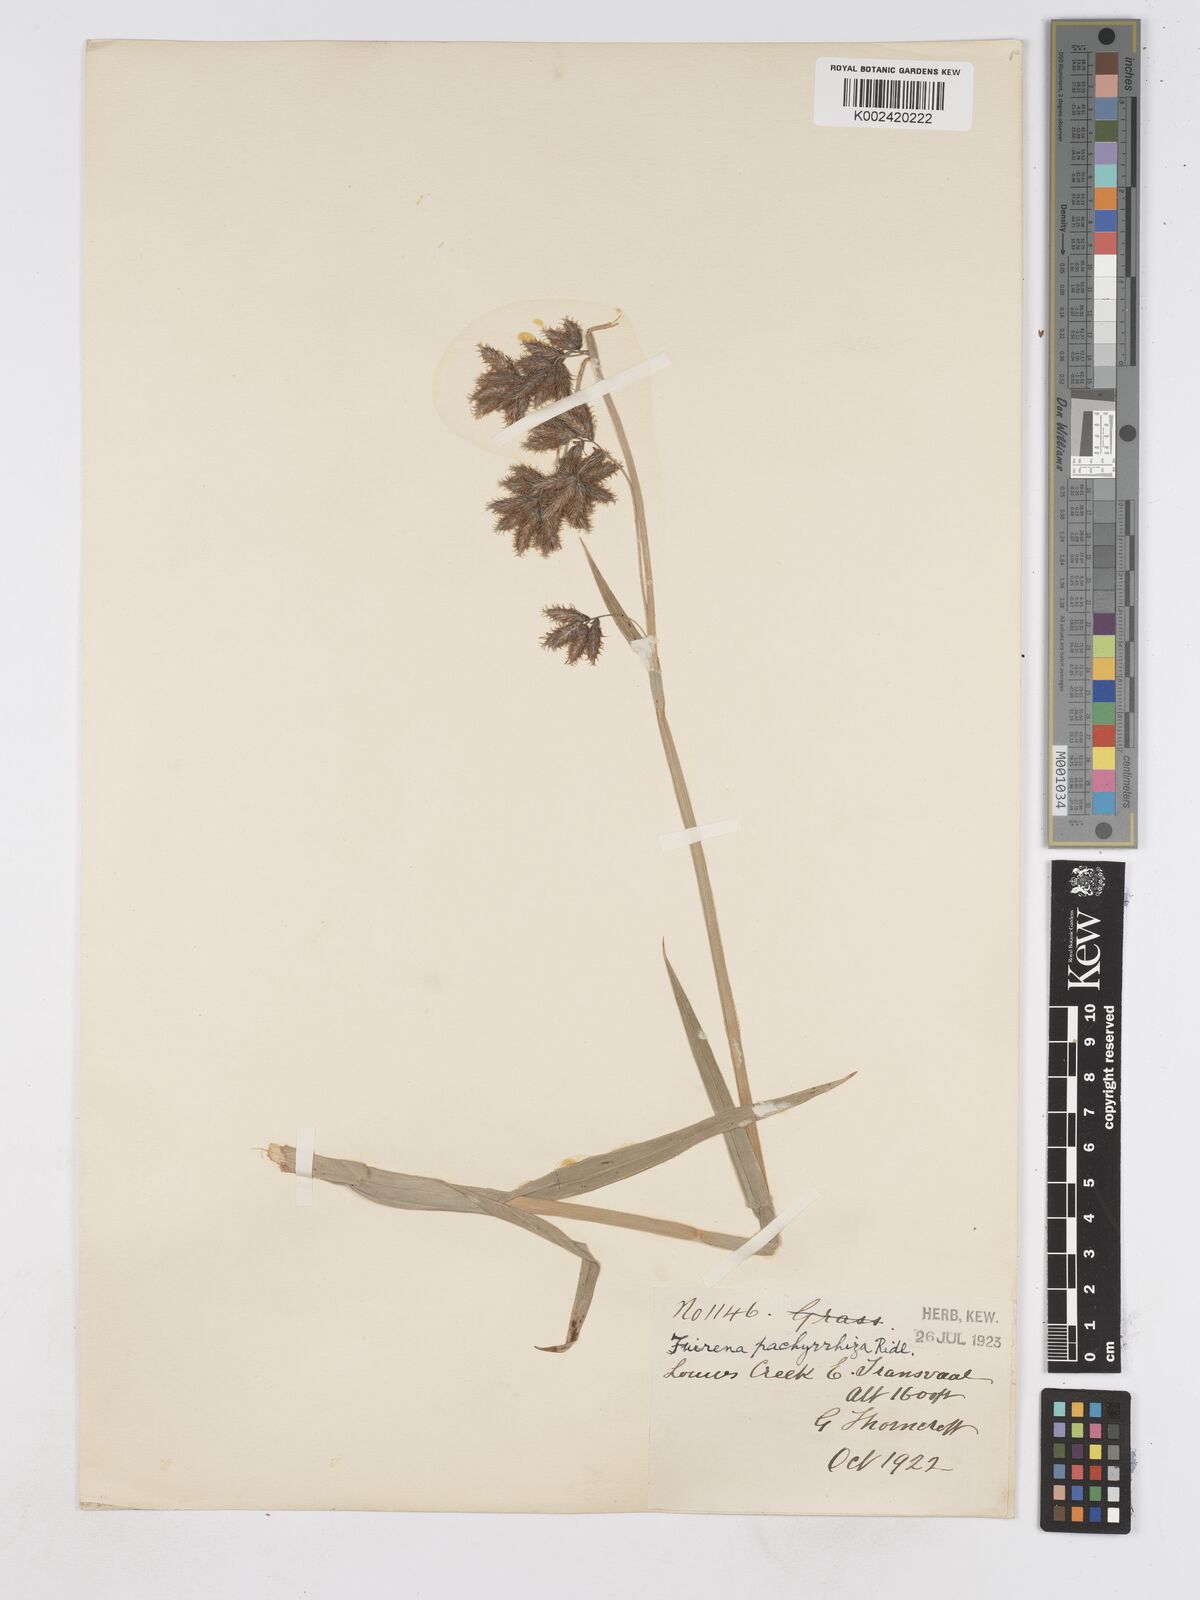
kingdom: Plantae
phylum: Tracheophyta
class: Liliopsida
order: Poales
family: Cyperaceae
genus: Fuirena
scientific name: Fuirena pachyrrhiza
